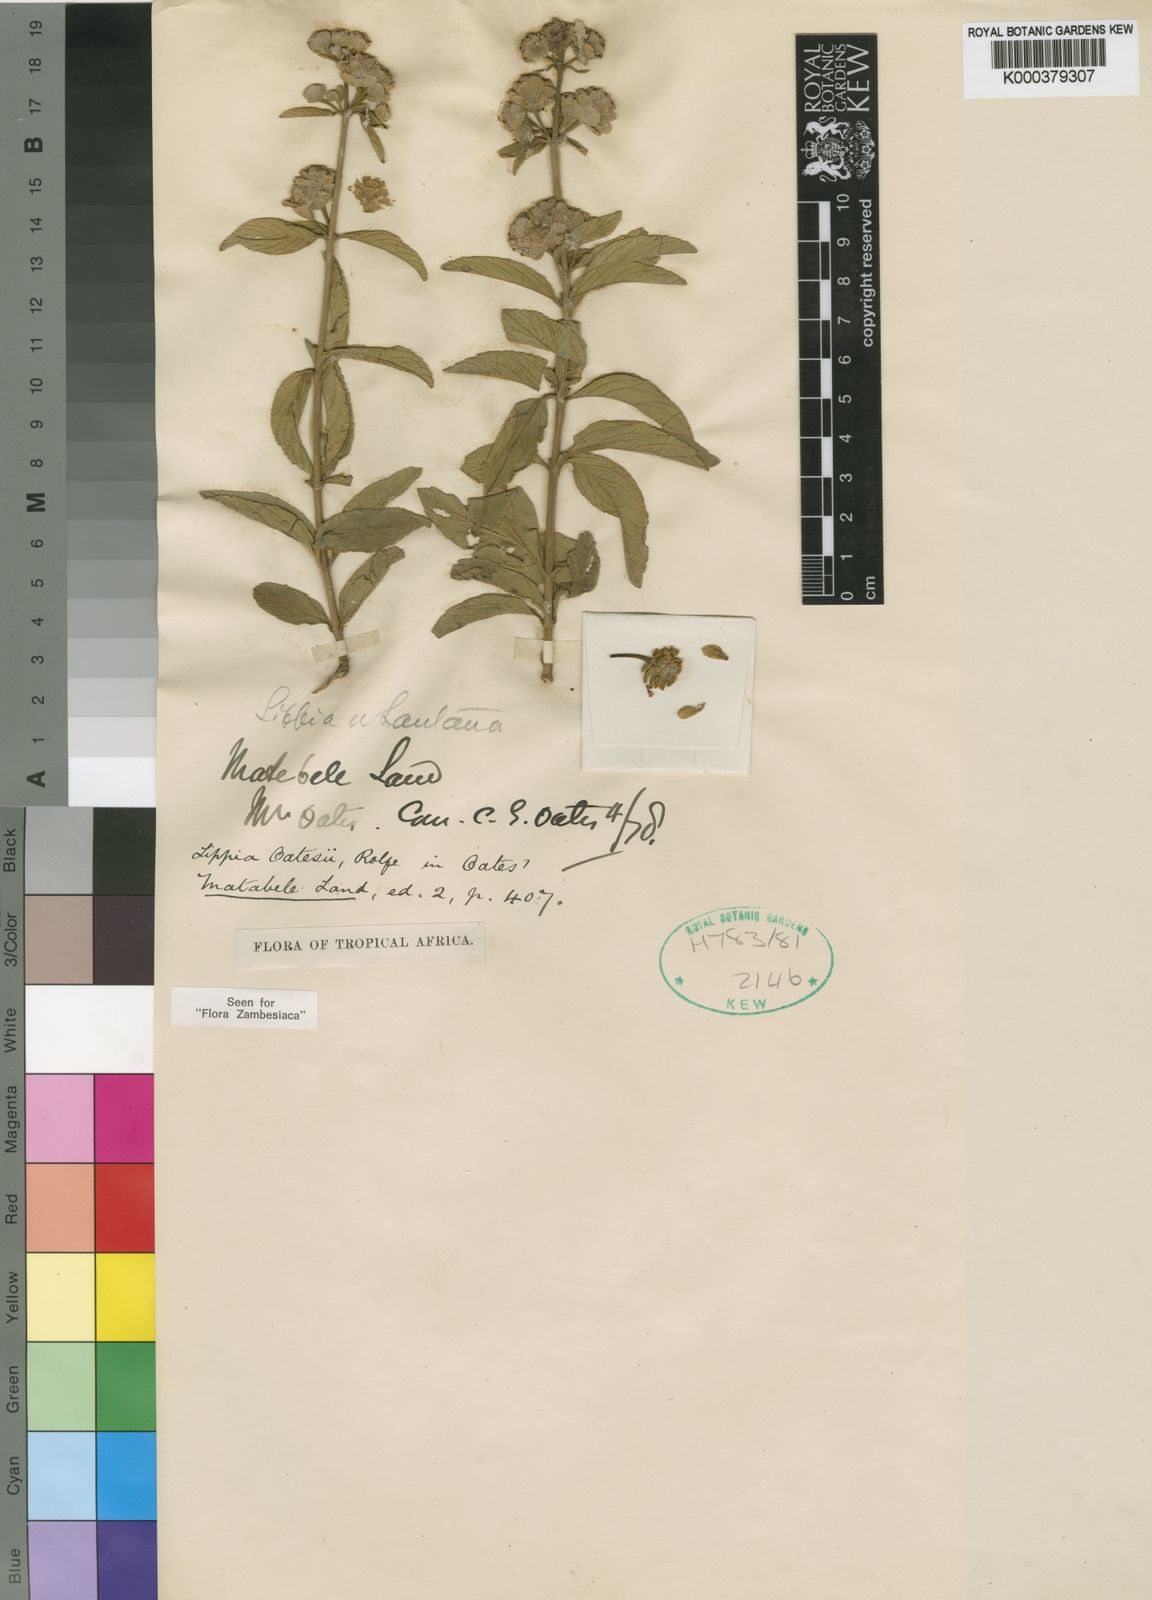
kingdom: Plantae
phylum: Tracheophyta
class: Magnoliopsida
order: Lamiales
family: Verbenaceae
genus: Lippia
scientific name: Lippia oatesii
